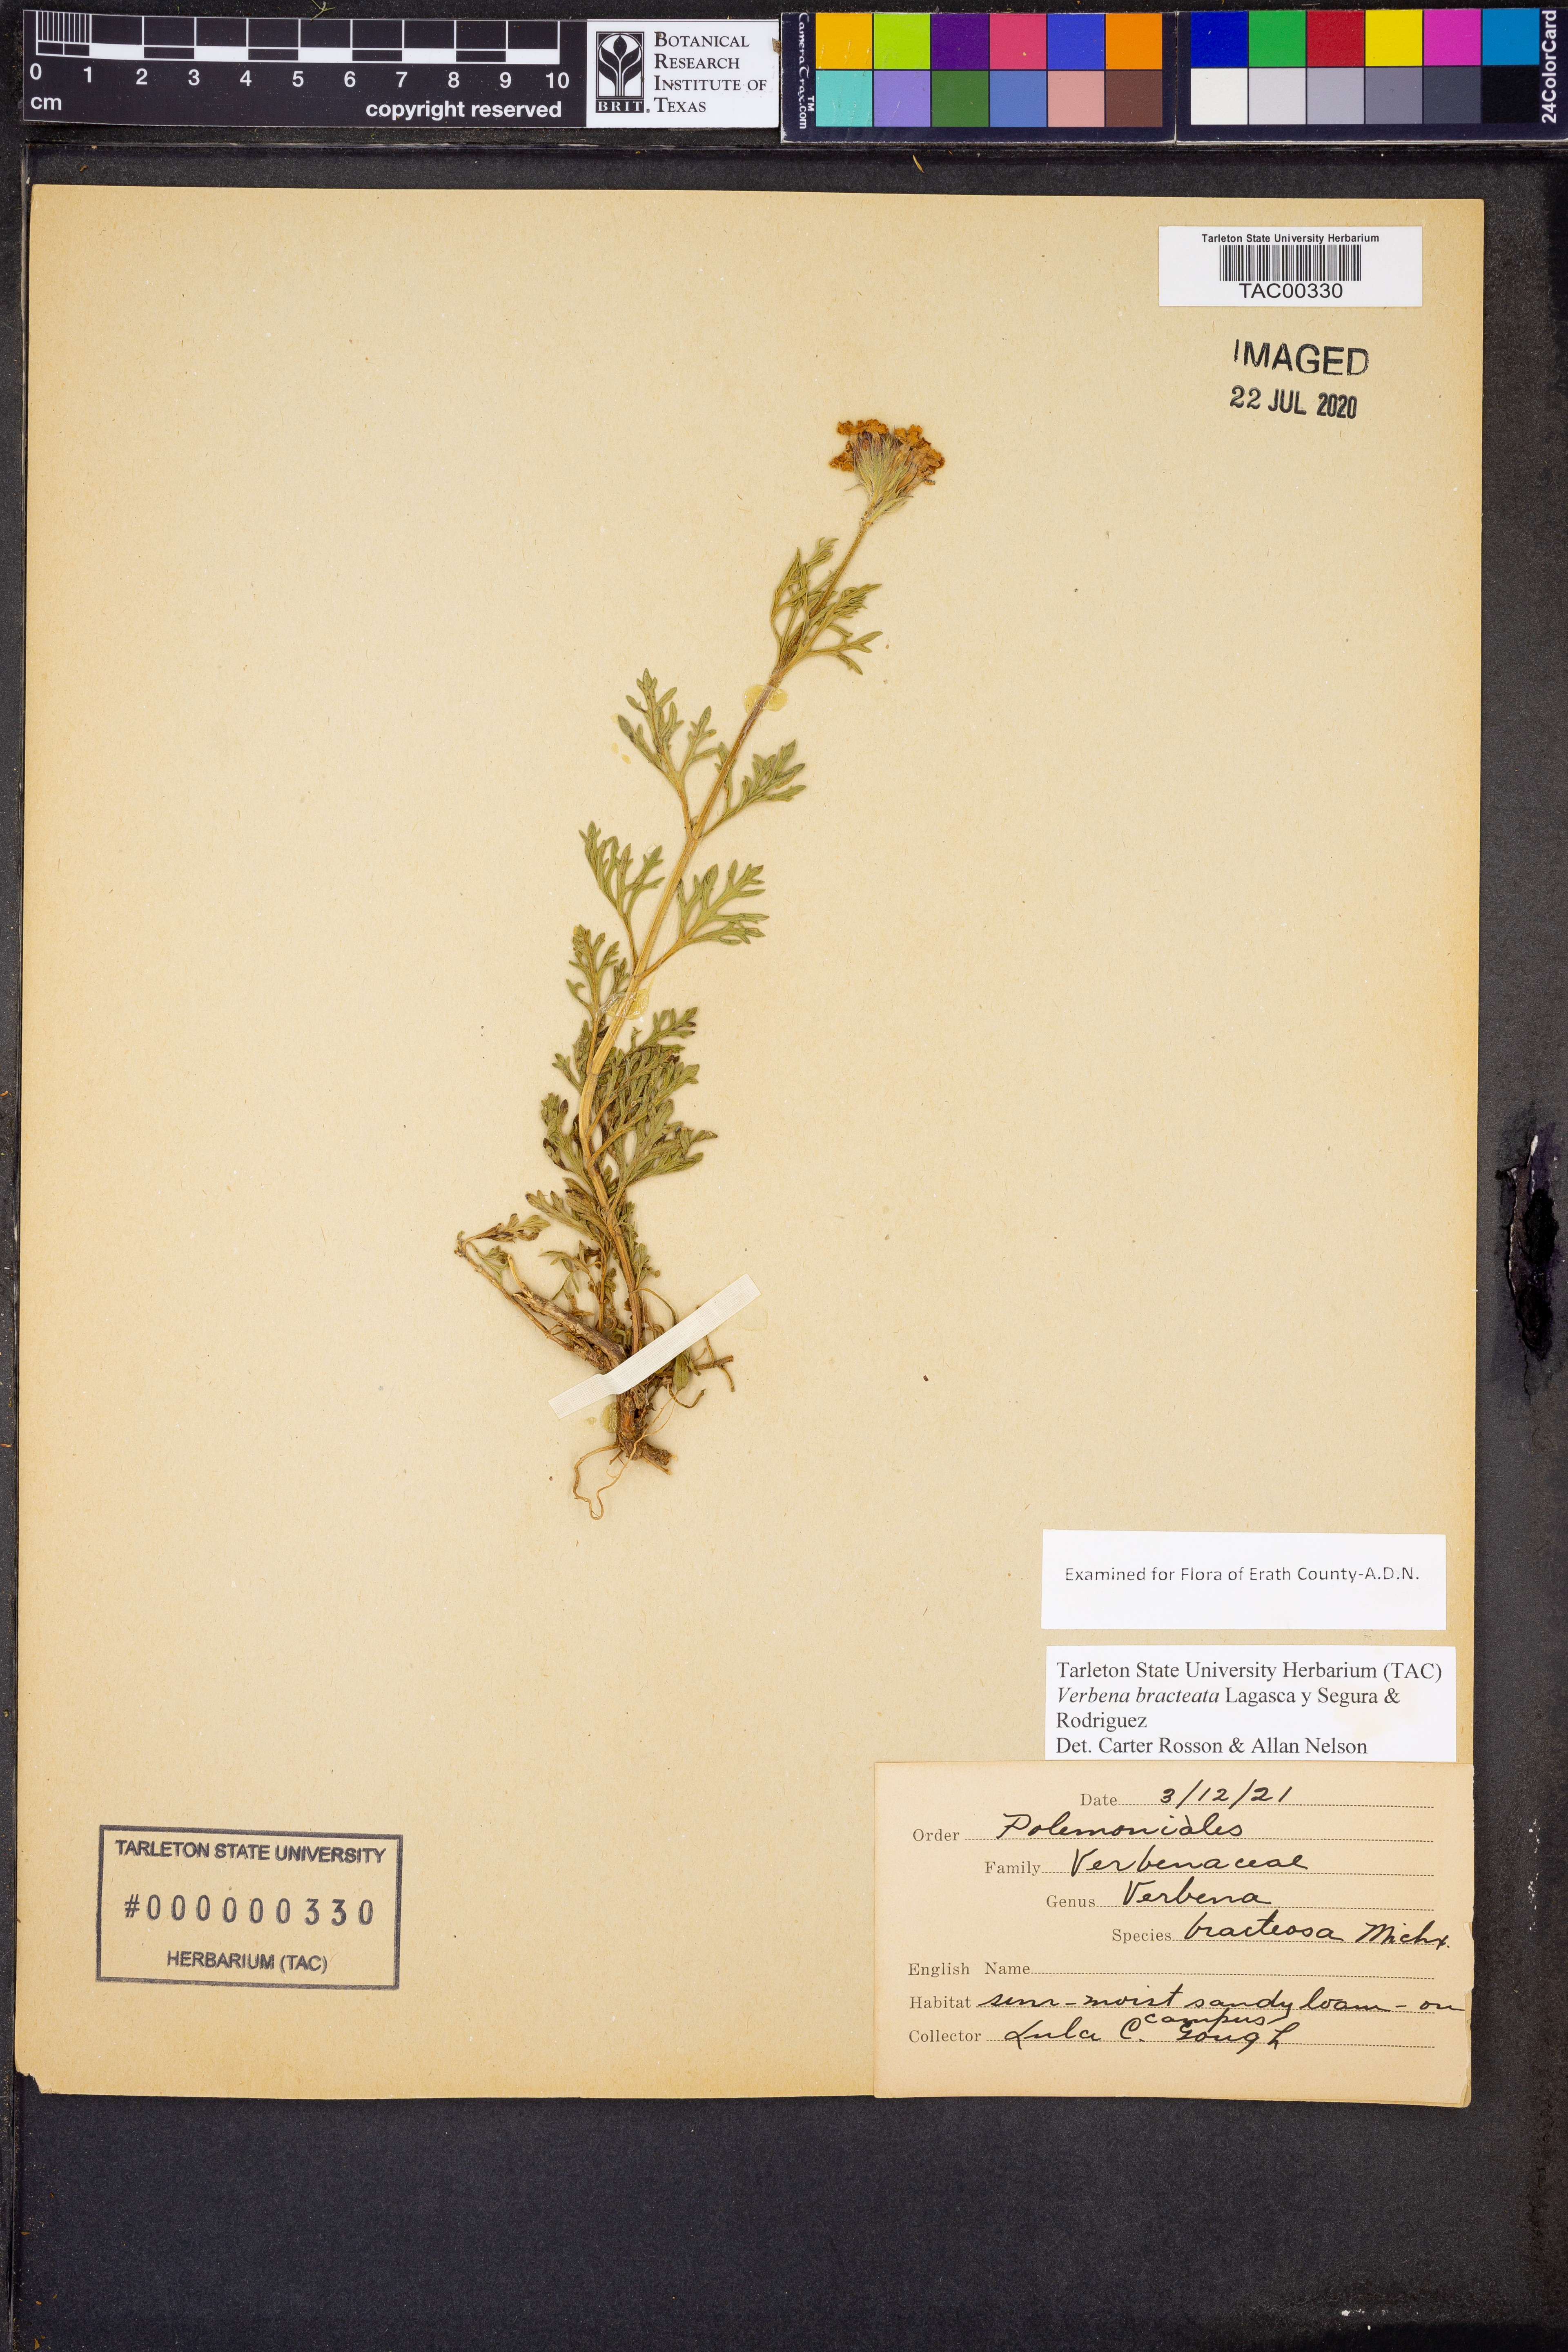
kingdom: Plantae
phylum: Tracheophyta
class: Magnoliopsida
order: Lamiales
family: Verbenaceae
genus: Verbena
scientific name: Verbena bracteata
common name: Bracted vervain
